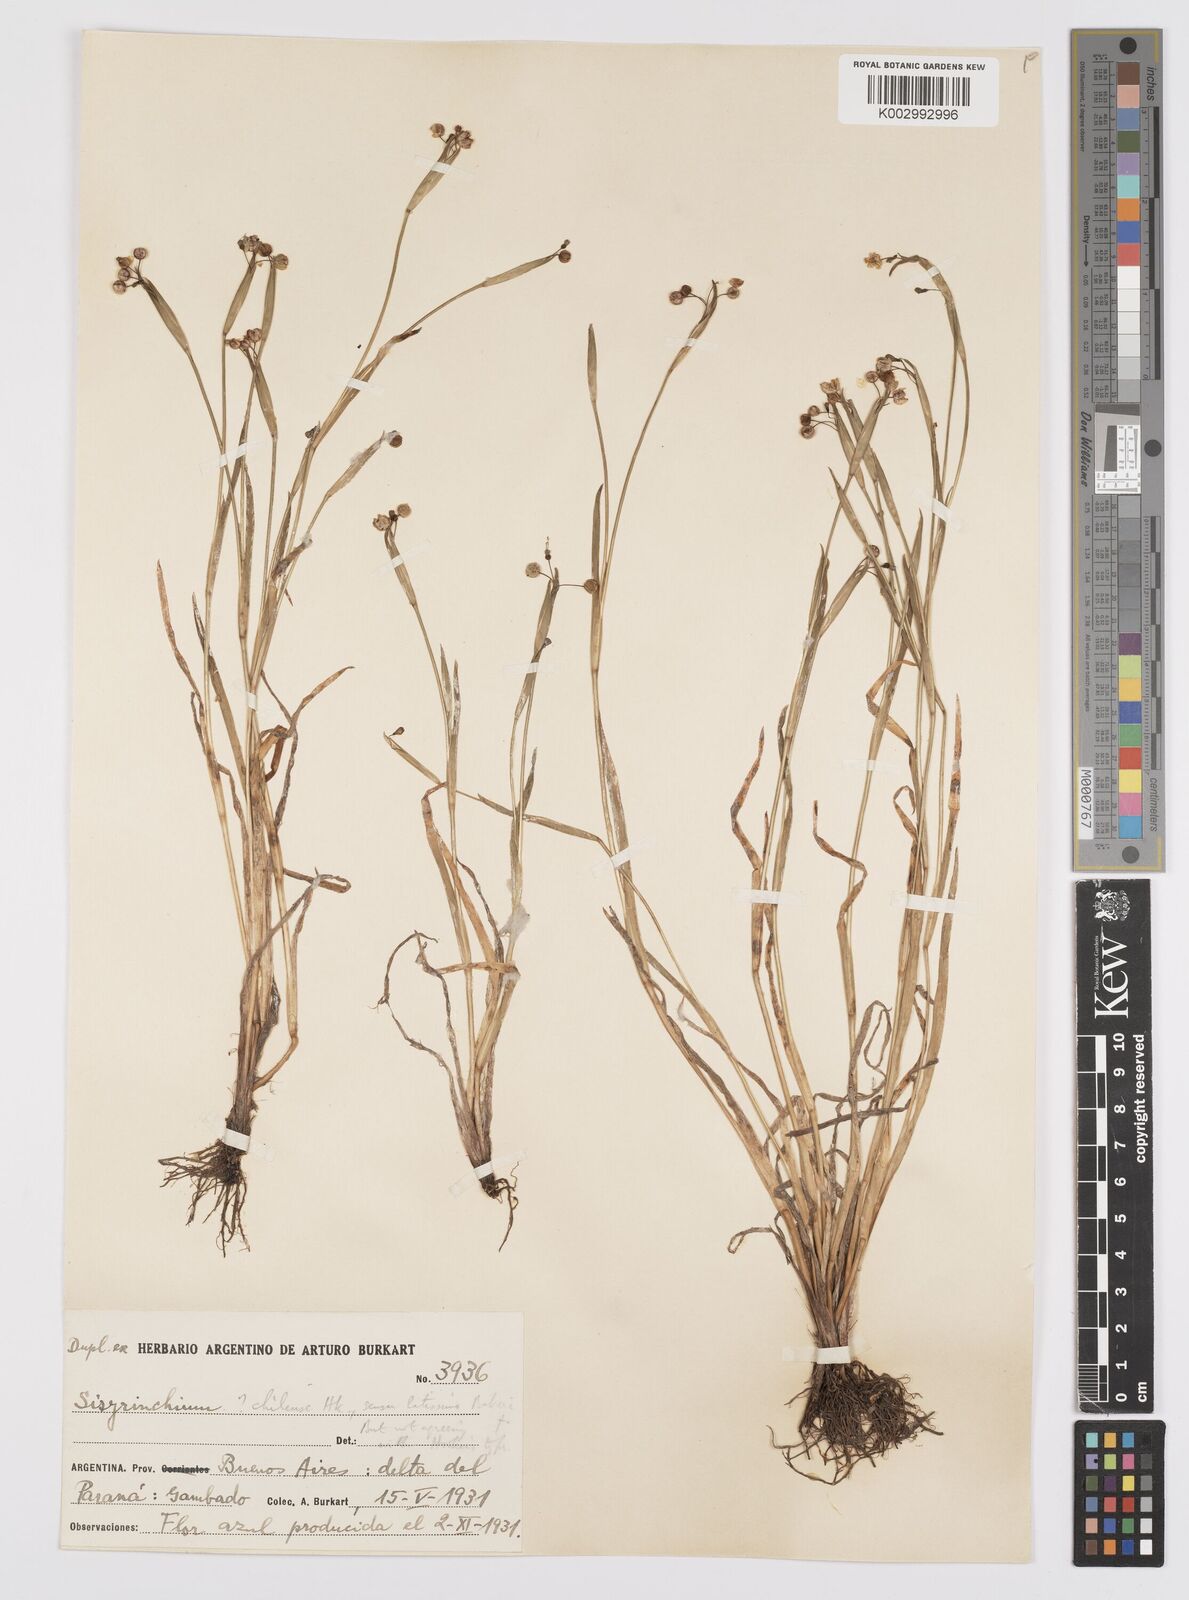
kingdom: Plantae
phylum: Tracheophyta
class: Liliopsida
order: Asparagales
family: Iridaceae
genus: Sisyrinchium
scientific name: Sisyrinchium platense
